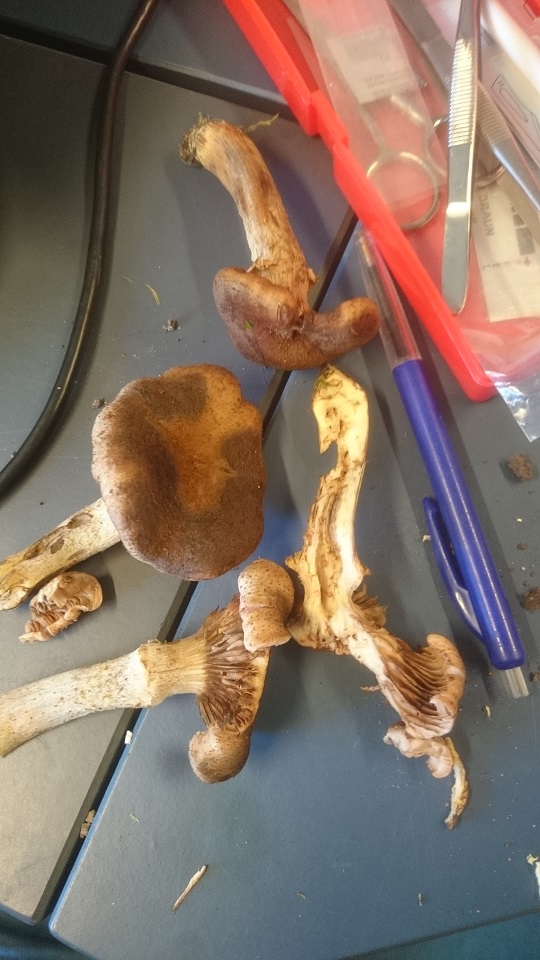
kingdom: Fungi
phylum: Basidiomycota
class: Agaricomycetes
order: Agaricales
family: Physalacriaceae
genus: Armillaria
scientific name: Armillaria lutea
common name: køllestokket honningsvamp
